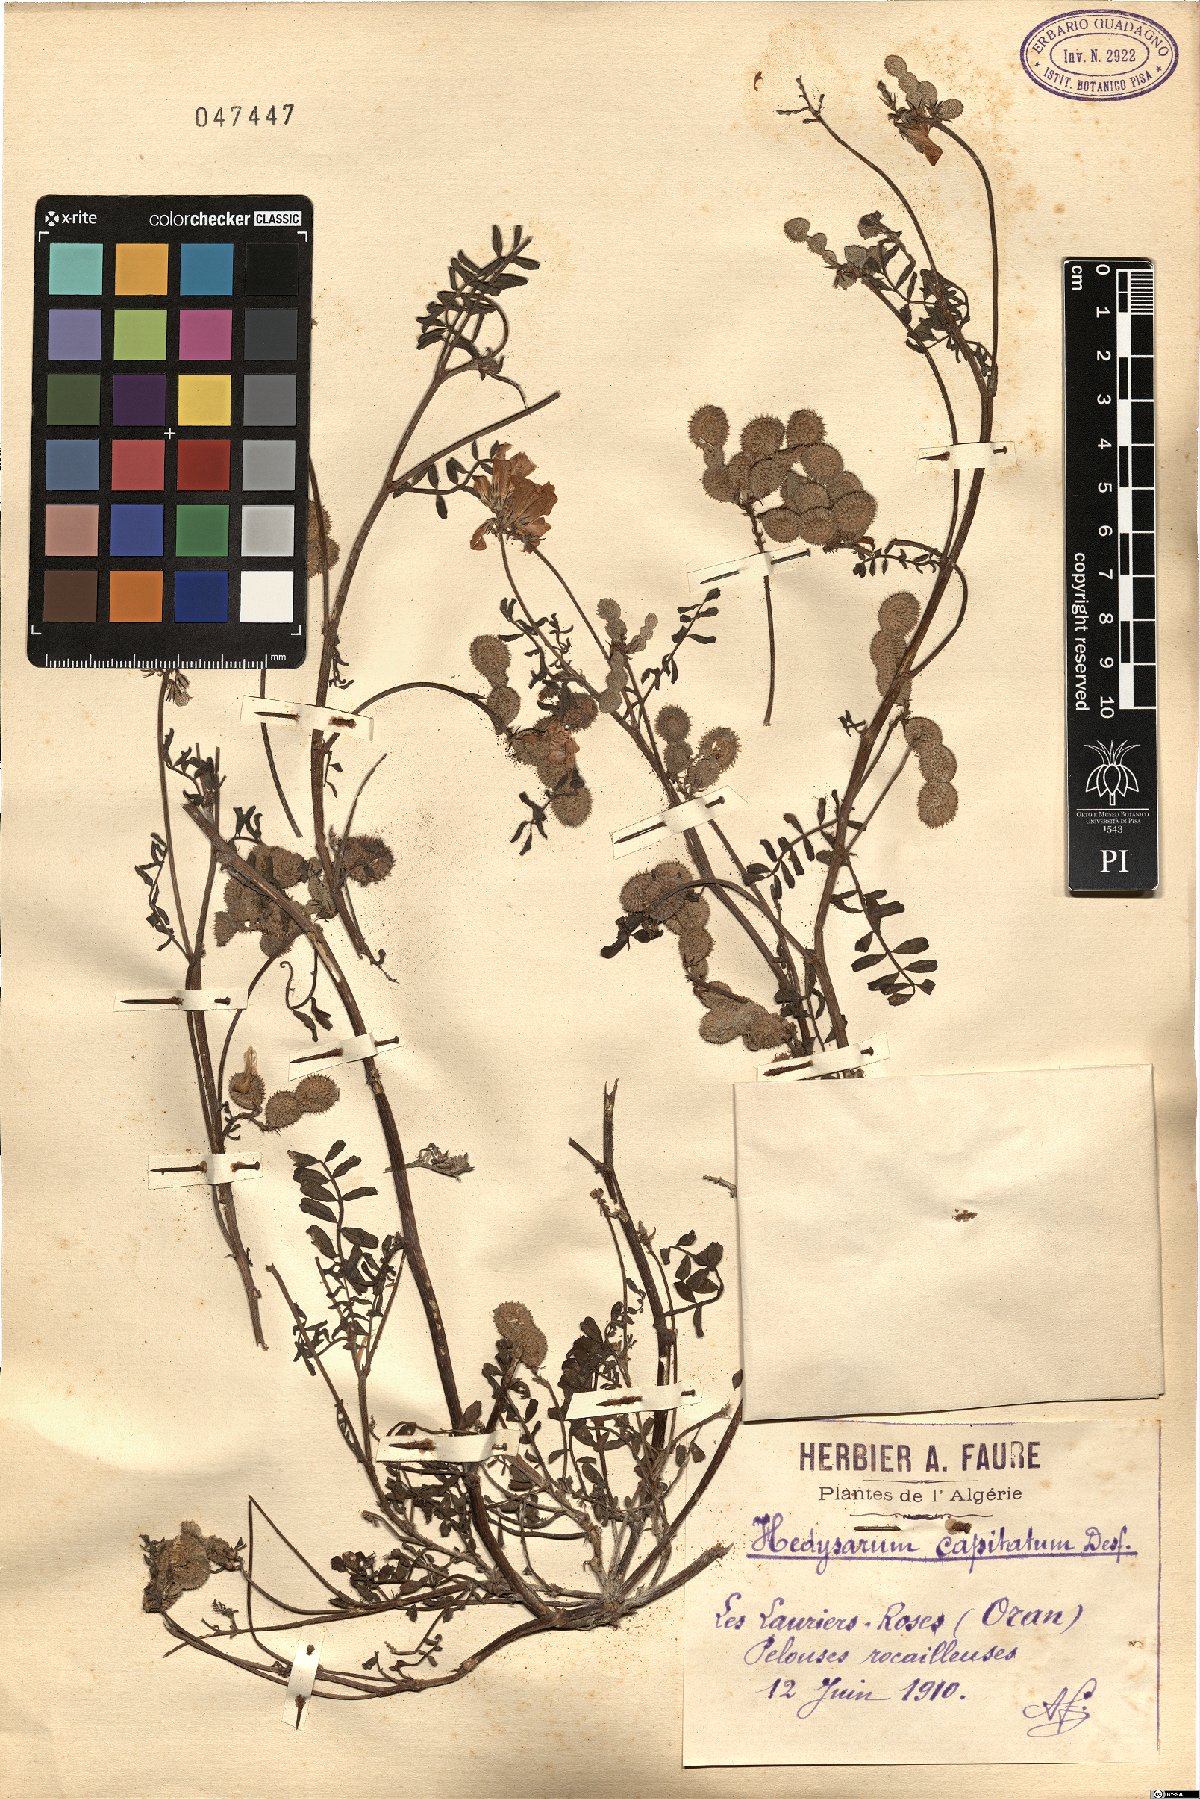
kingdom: Plantae
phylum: Tracheophyta
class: Magnoliopsida
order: Fabales
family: Fabaceae
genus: Sulla
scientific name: Sulla glomerata
